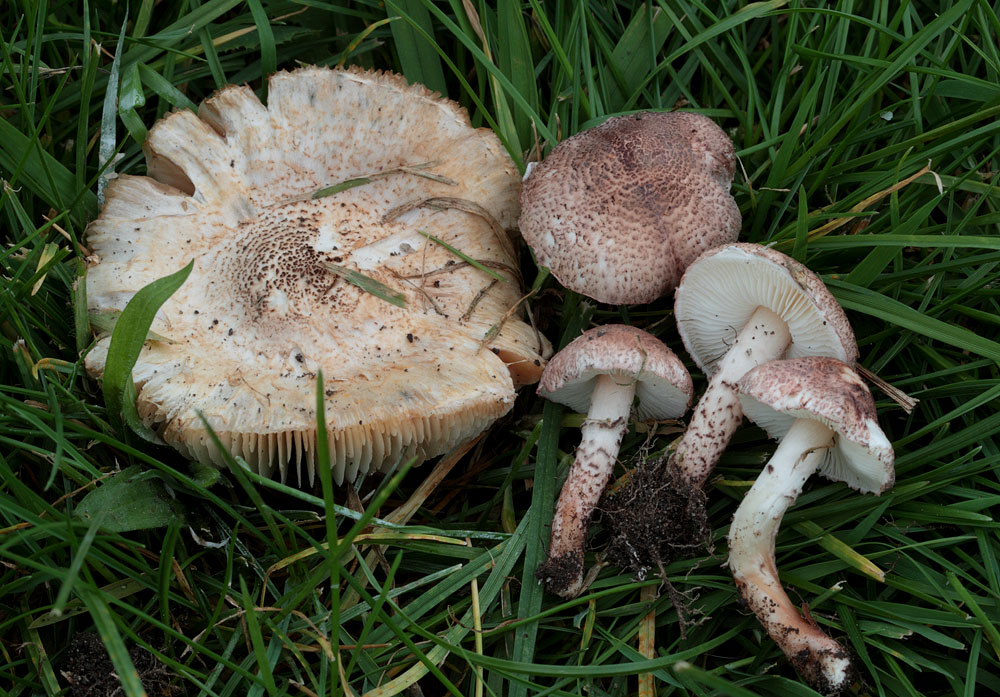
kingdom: Fungi
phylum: Basidiomycota
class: Agaricomycetes
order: Agaricales
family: Agaricaceae
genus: Lepiota
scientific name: Lepiota brunneoincarnata
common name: brunrød parasolhat
